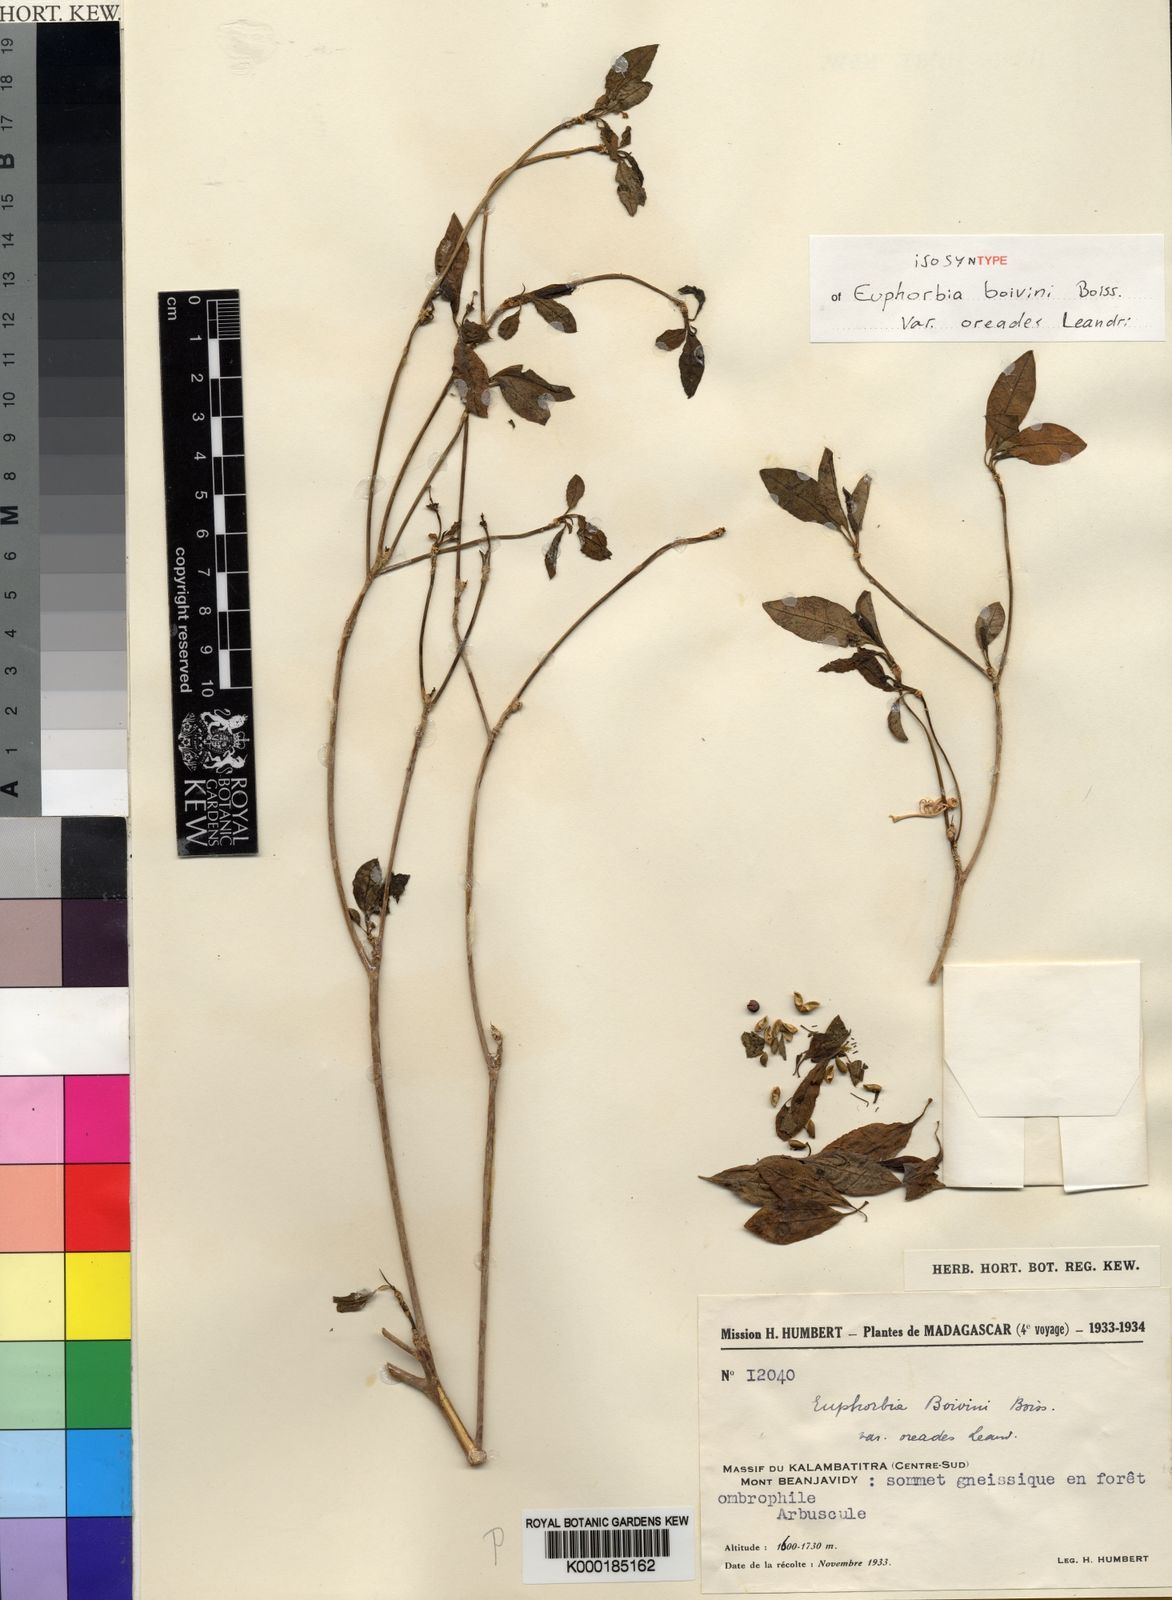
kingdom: Plantae
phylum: Tracheophyta
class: Magnoliopsida
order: Malpighiales
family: Euphorbiaceae
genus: Euphorbia
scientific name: Euphorbia boivinii
